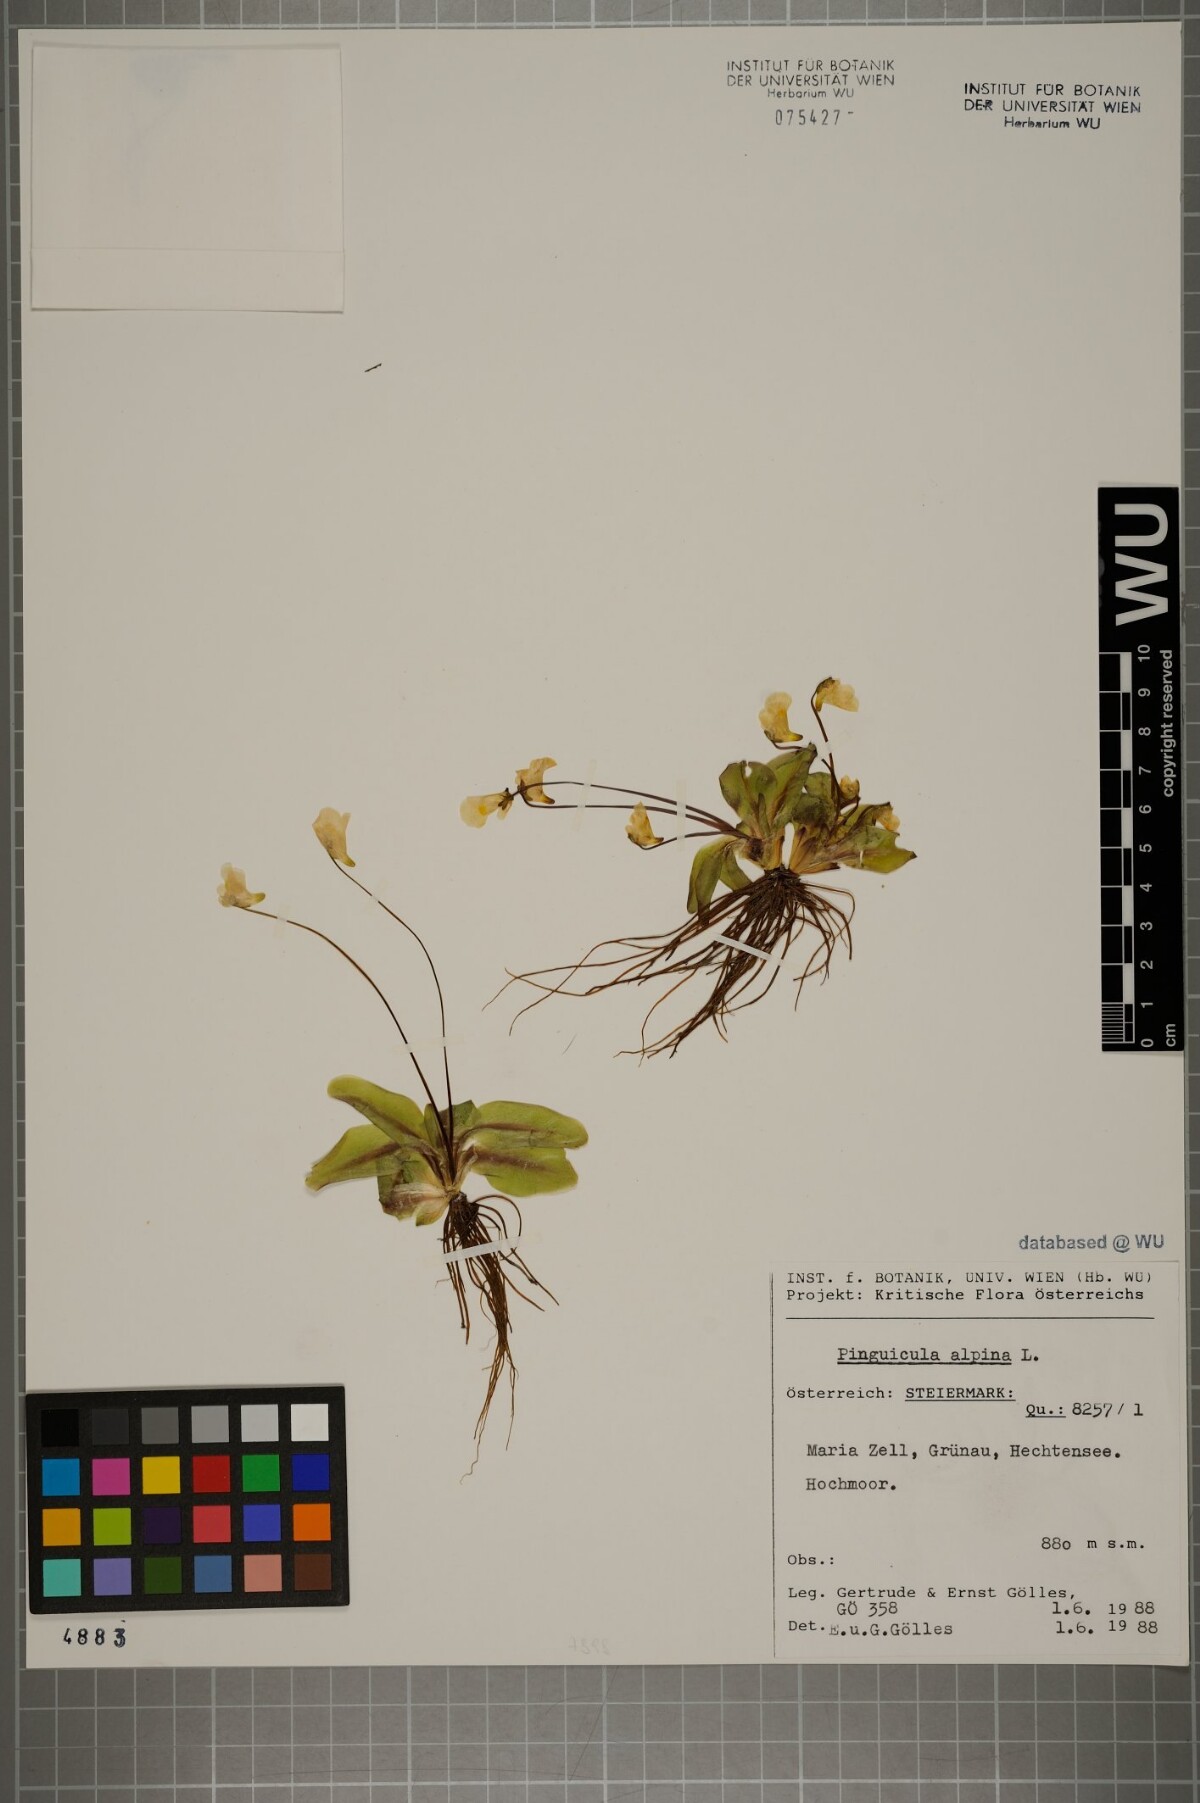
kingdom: Plantae
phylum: Tracheophyta
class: Magnoliopsida
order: Lamiales
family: Lentibulariaceae
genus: Pinguicula
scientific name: Pinguicula alpina
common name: Alpine butterwort
